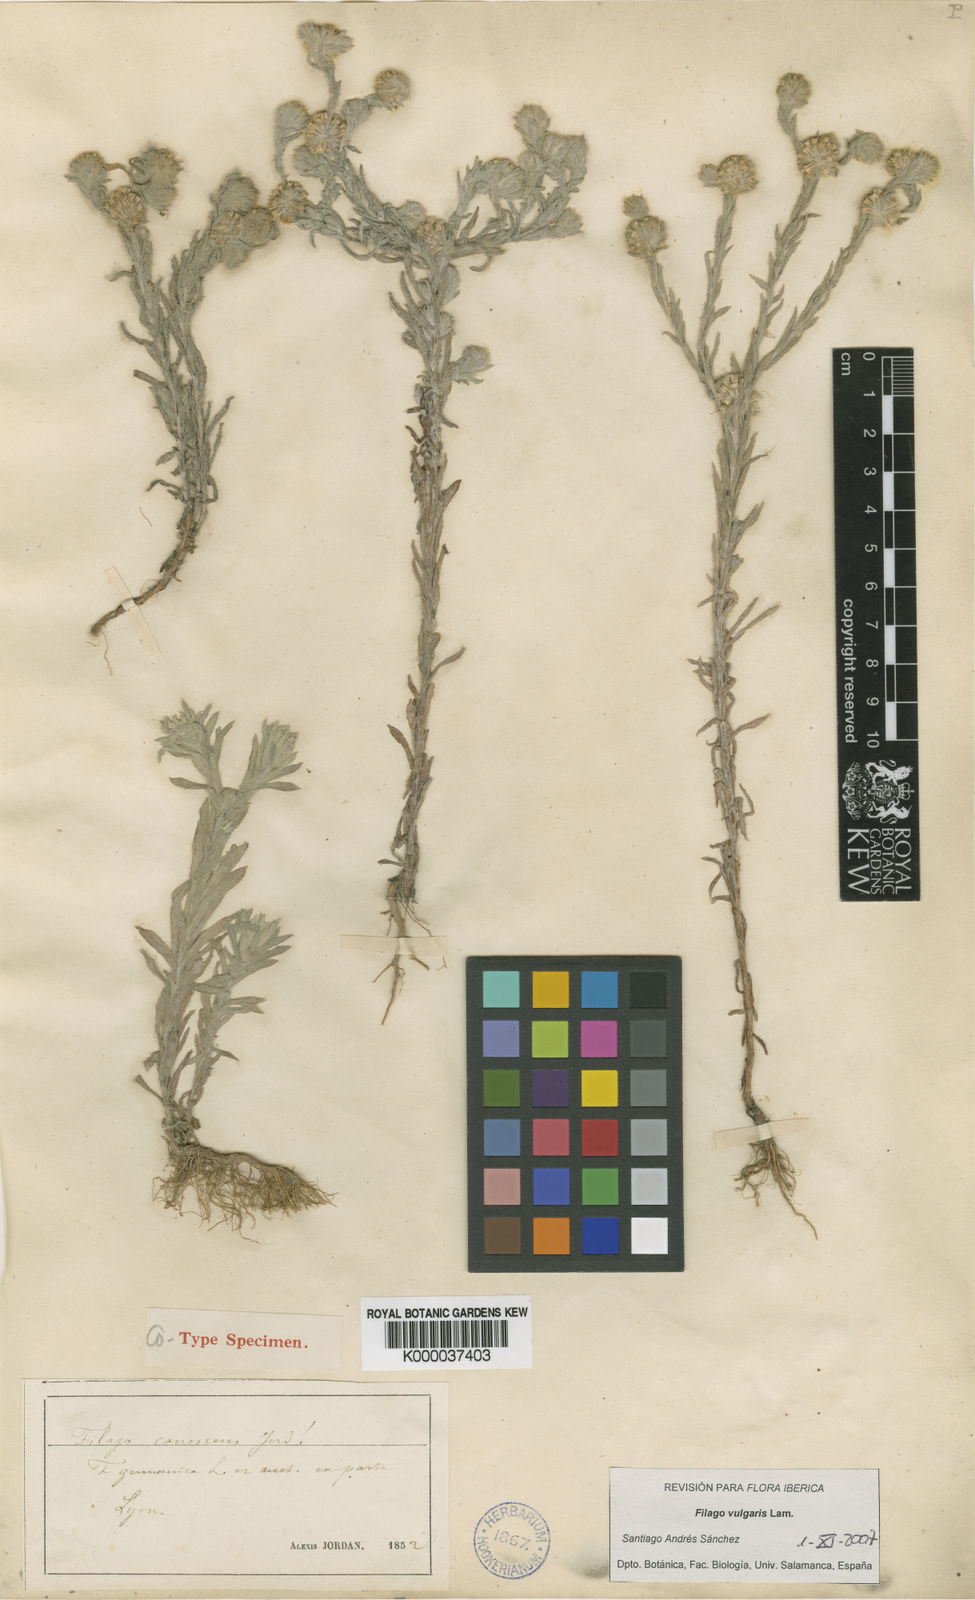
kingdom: Plantae
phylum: Tracheophyta
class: Magnoliopsida
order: Asterales
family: Asteraceae
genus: Filago
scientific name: Filago germanica
